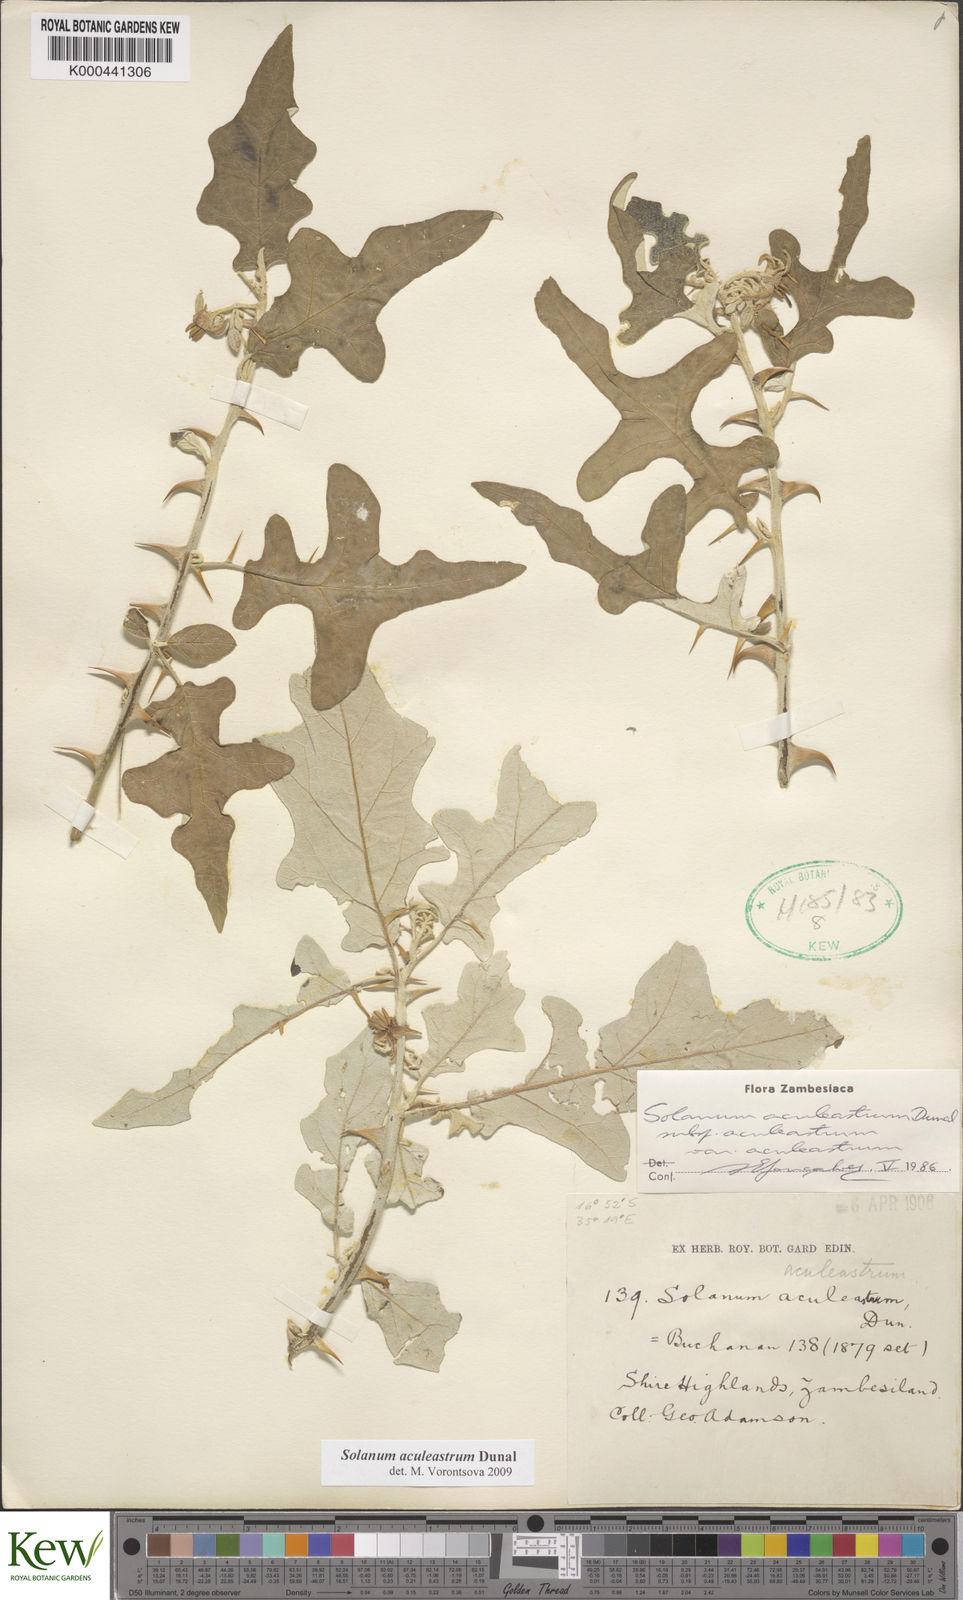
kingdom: Plantae
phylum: Tracheophyta
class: Magnoliopsida
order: Solanales
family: Solanaceae
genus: Solanum
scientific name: Solanum aculeastrum
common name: Goat bitter-apple
